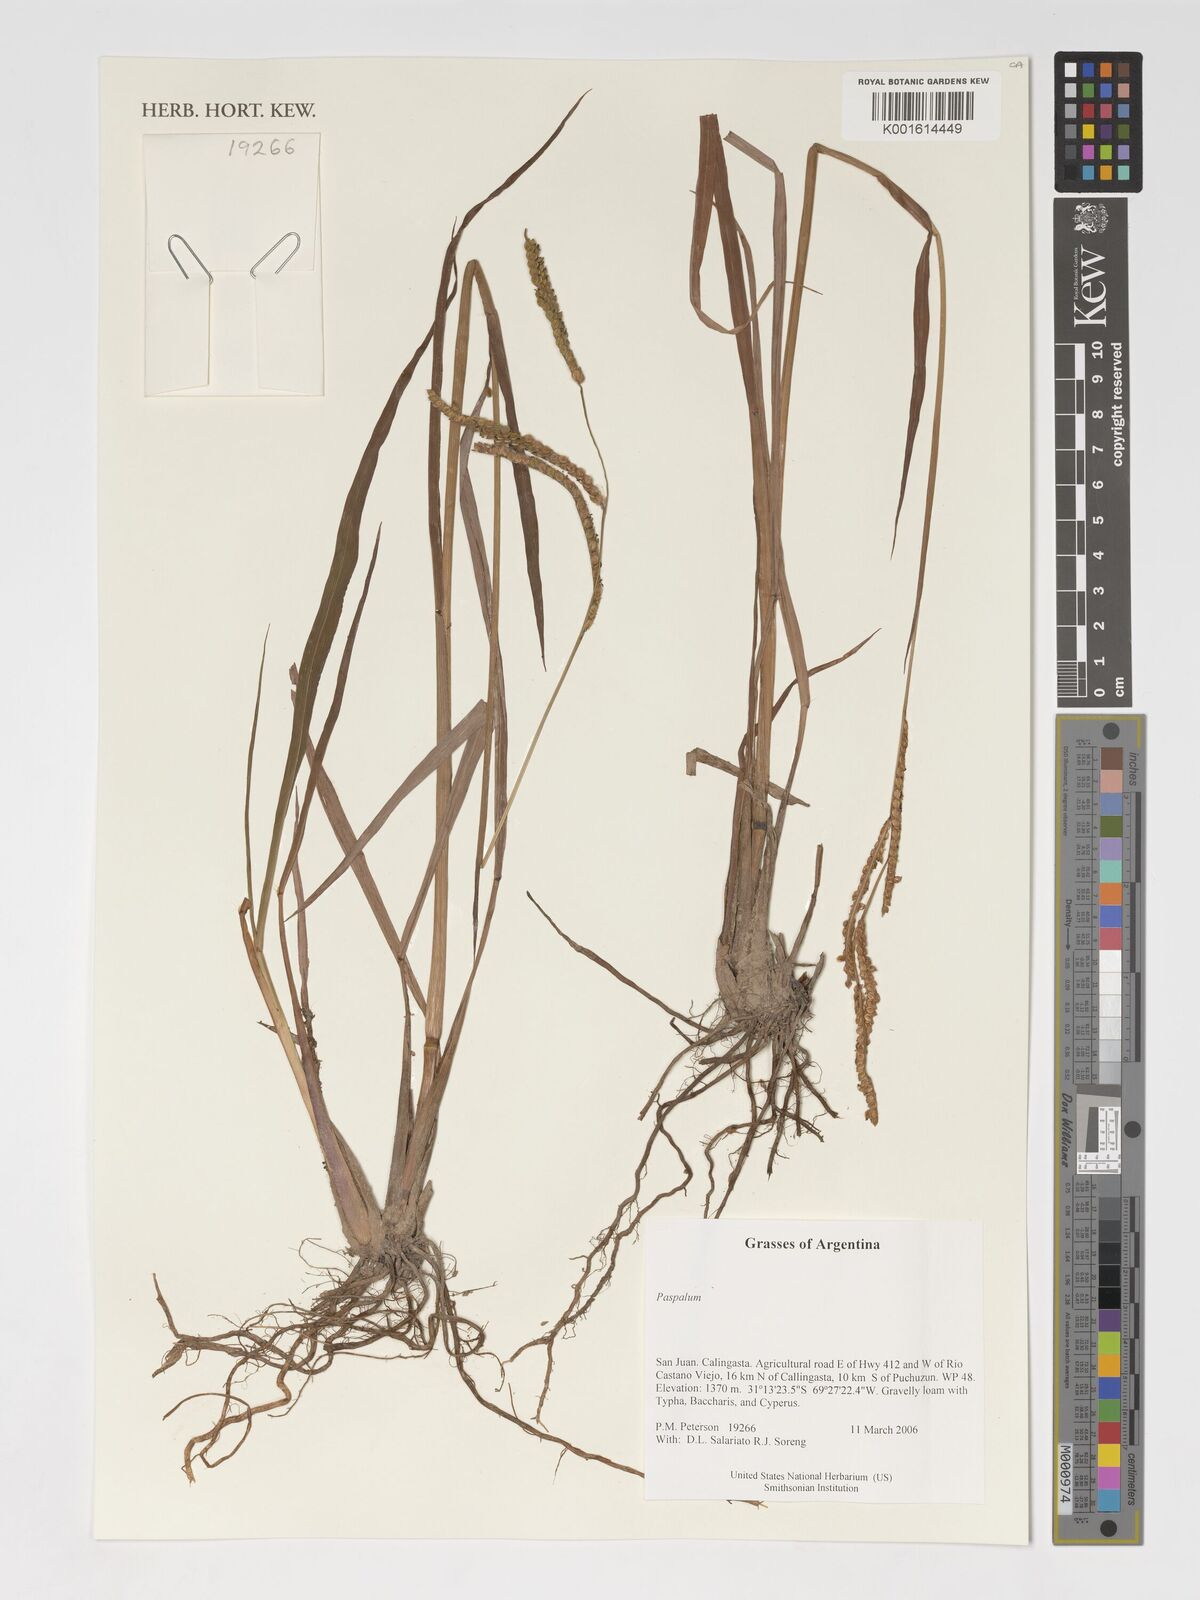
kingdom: Plantae
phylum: Tracheophyta
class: Liliopsida
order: Poales
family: Poaceae
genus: Paspalum
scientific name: Paspalum
